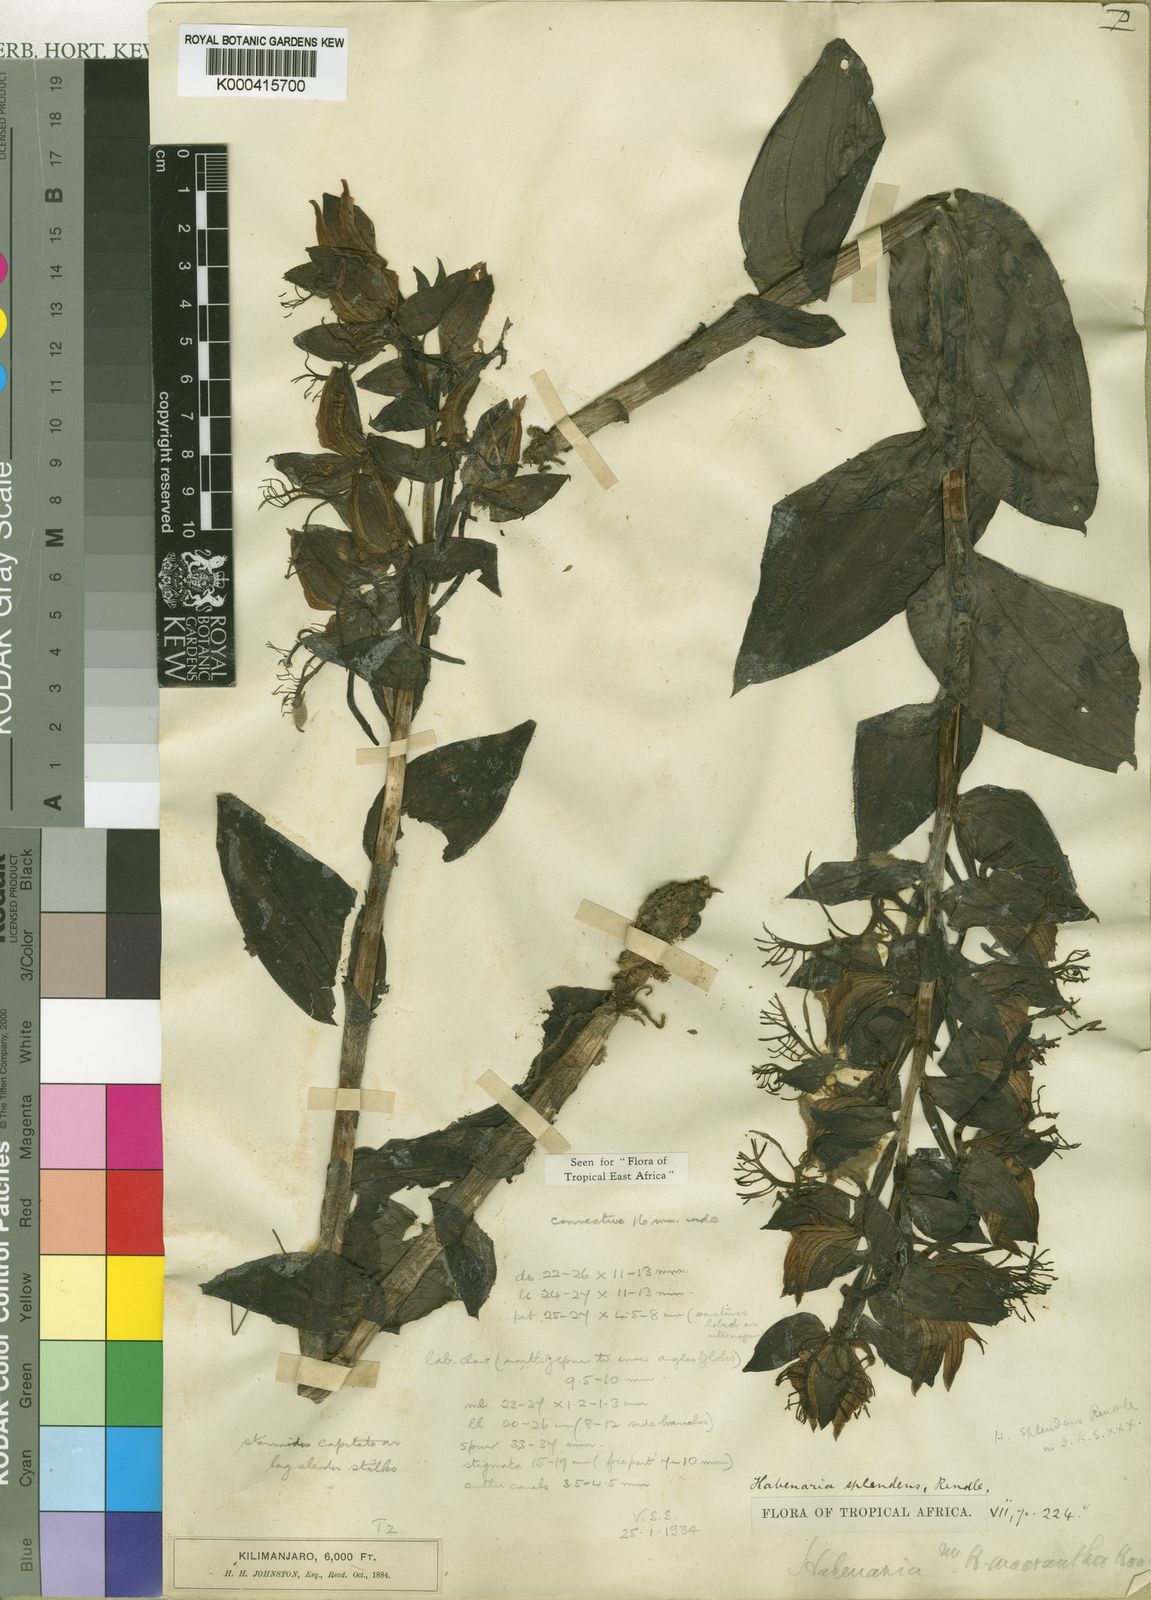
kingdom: Plantae
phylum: Tracheophyta
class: Liliopsida
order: Asparagales
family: Orchidaceae
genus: Habenaria
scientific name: Habenaria splendens
